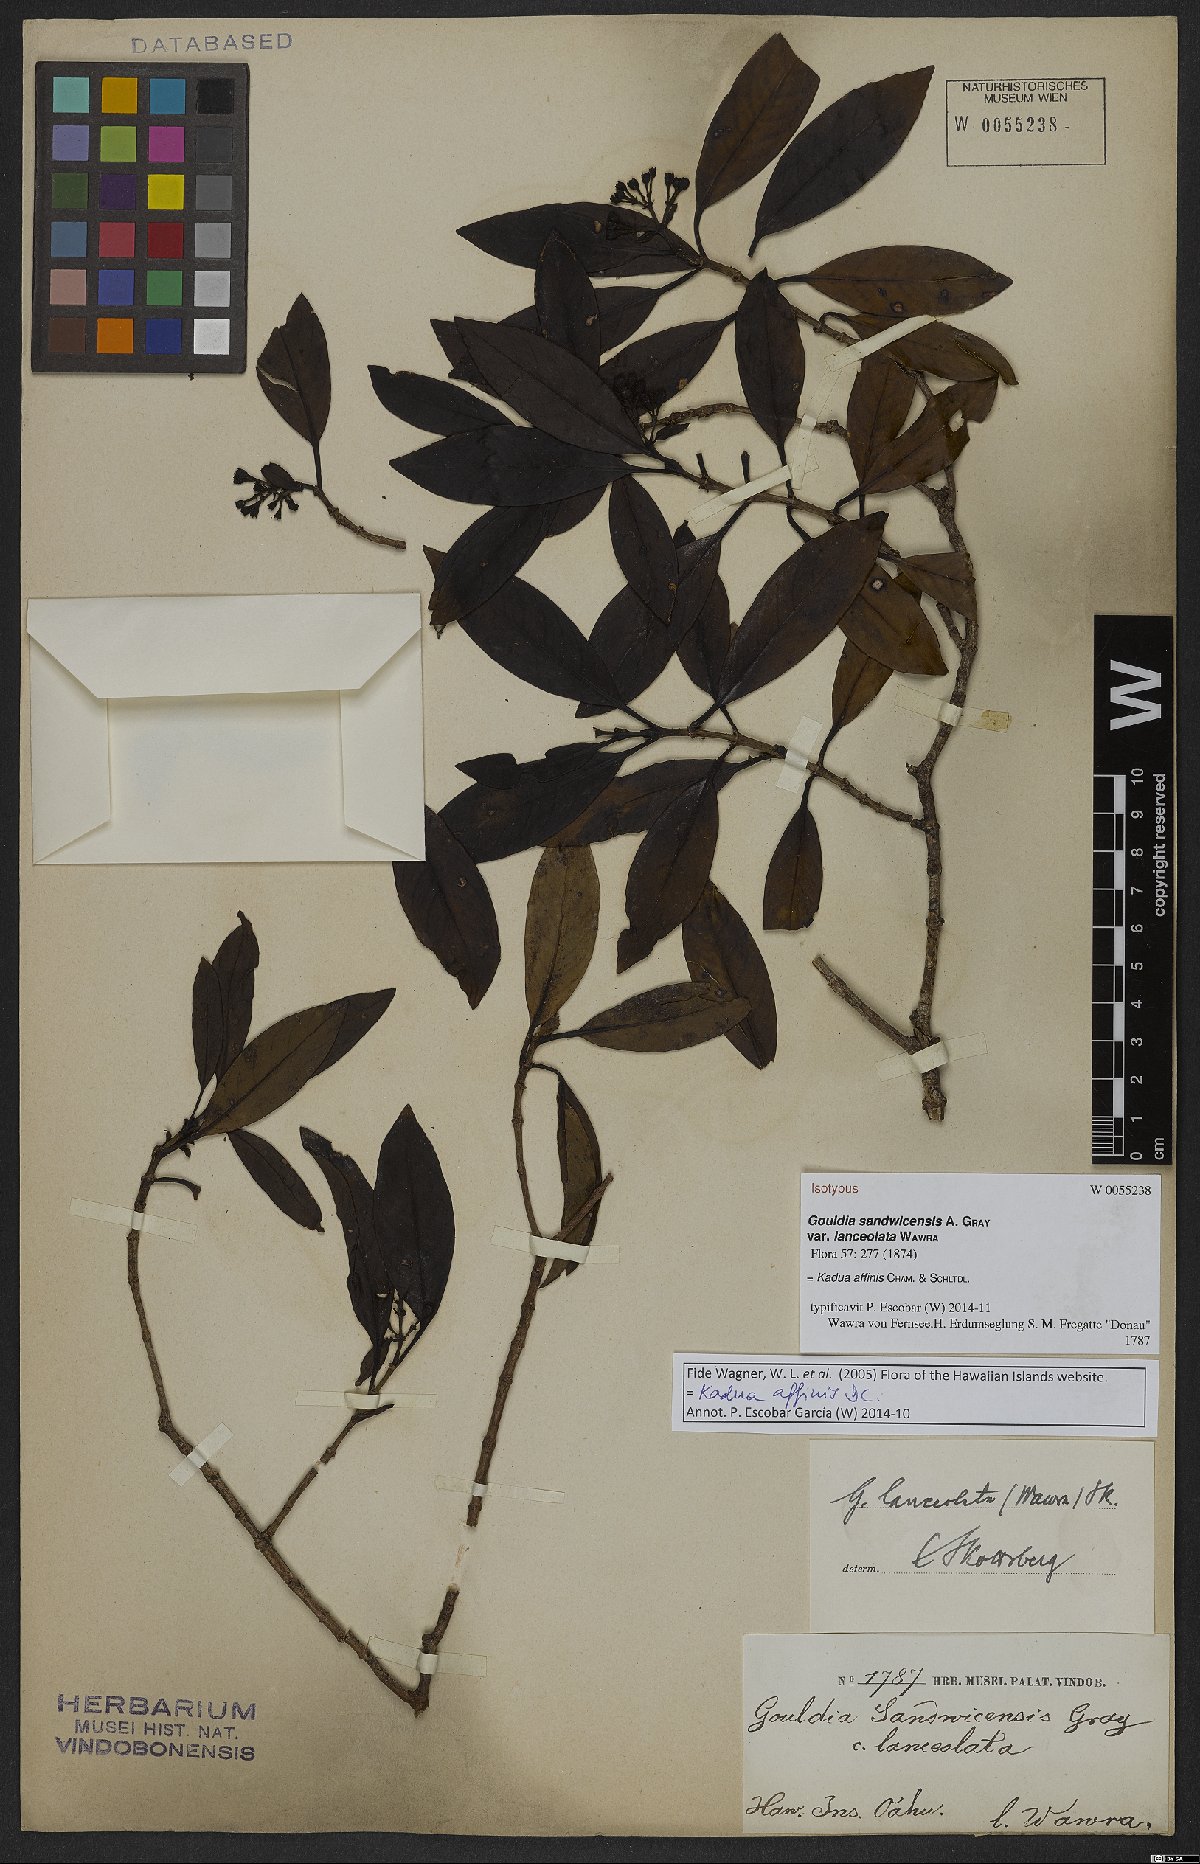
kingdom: Plantae
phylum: Tracheophyta
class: Magnoliopsida
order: Gentianales
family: Rubiaceae
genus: Kadua
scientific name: Kadua affinis
